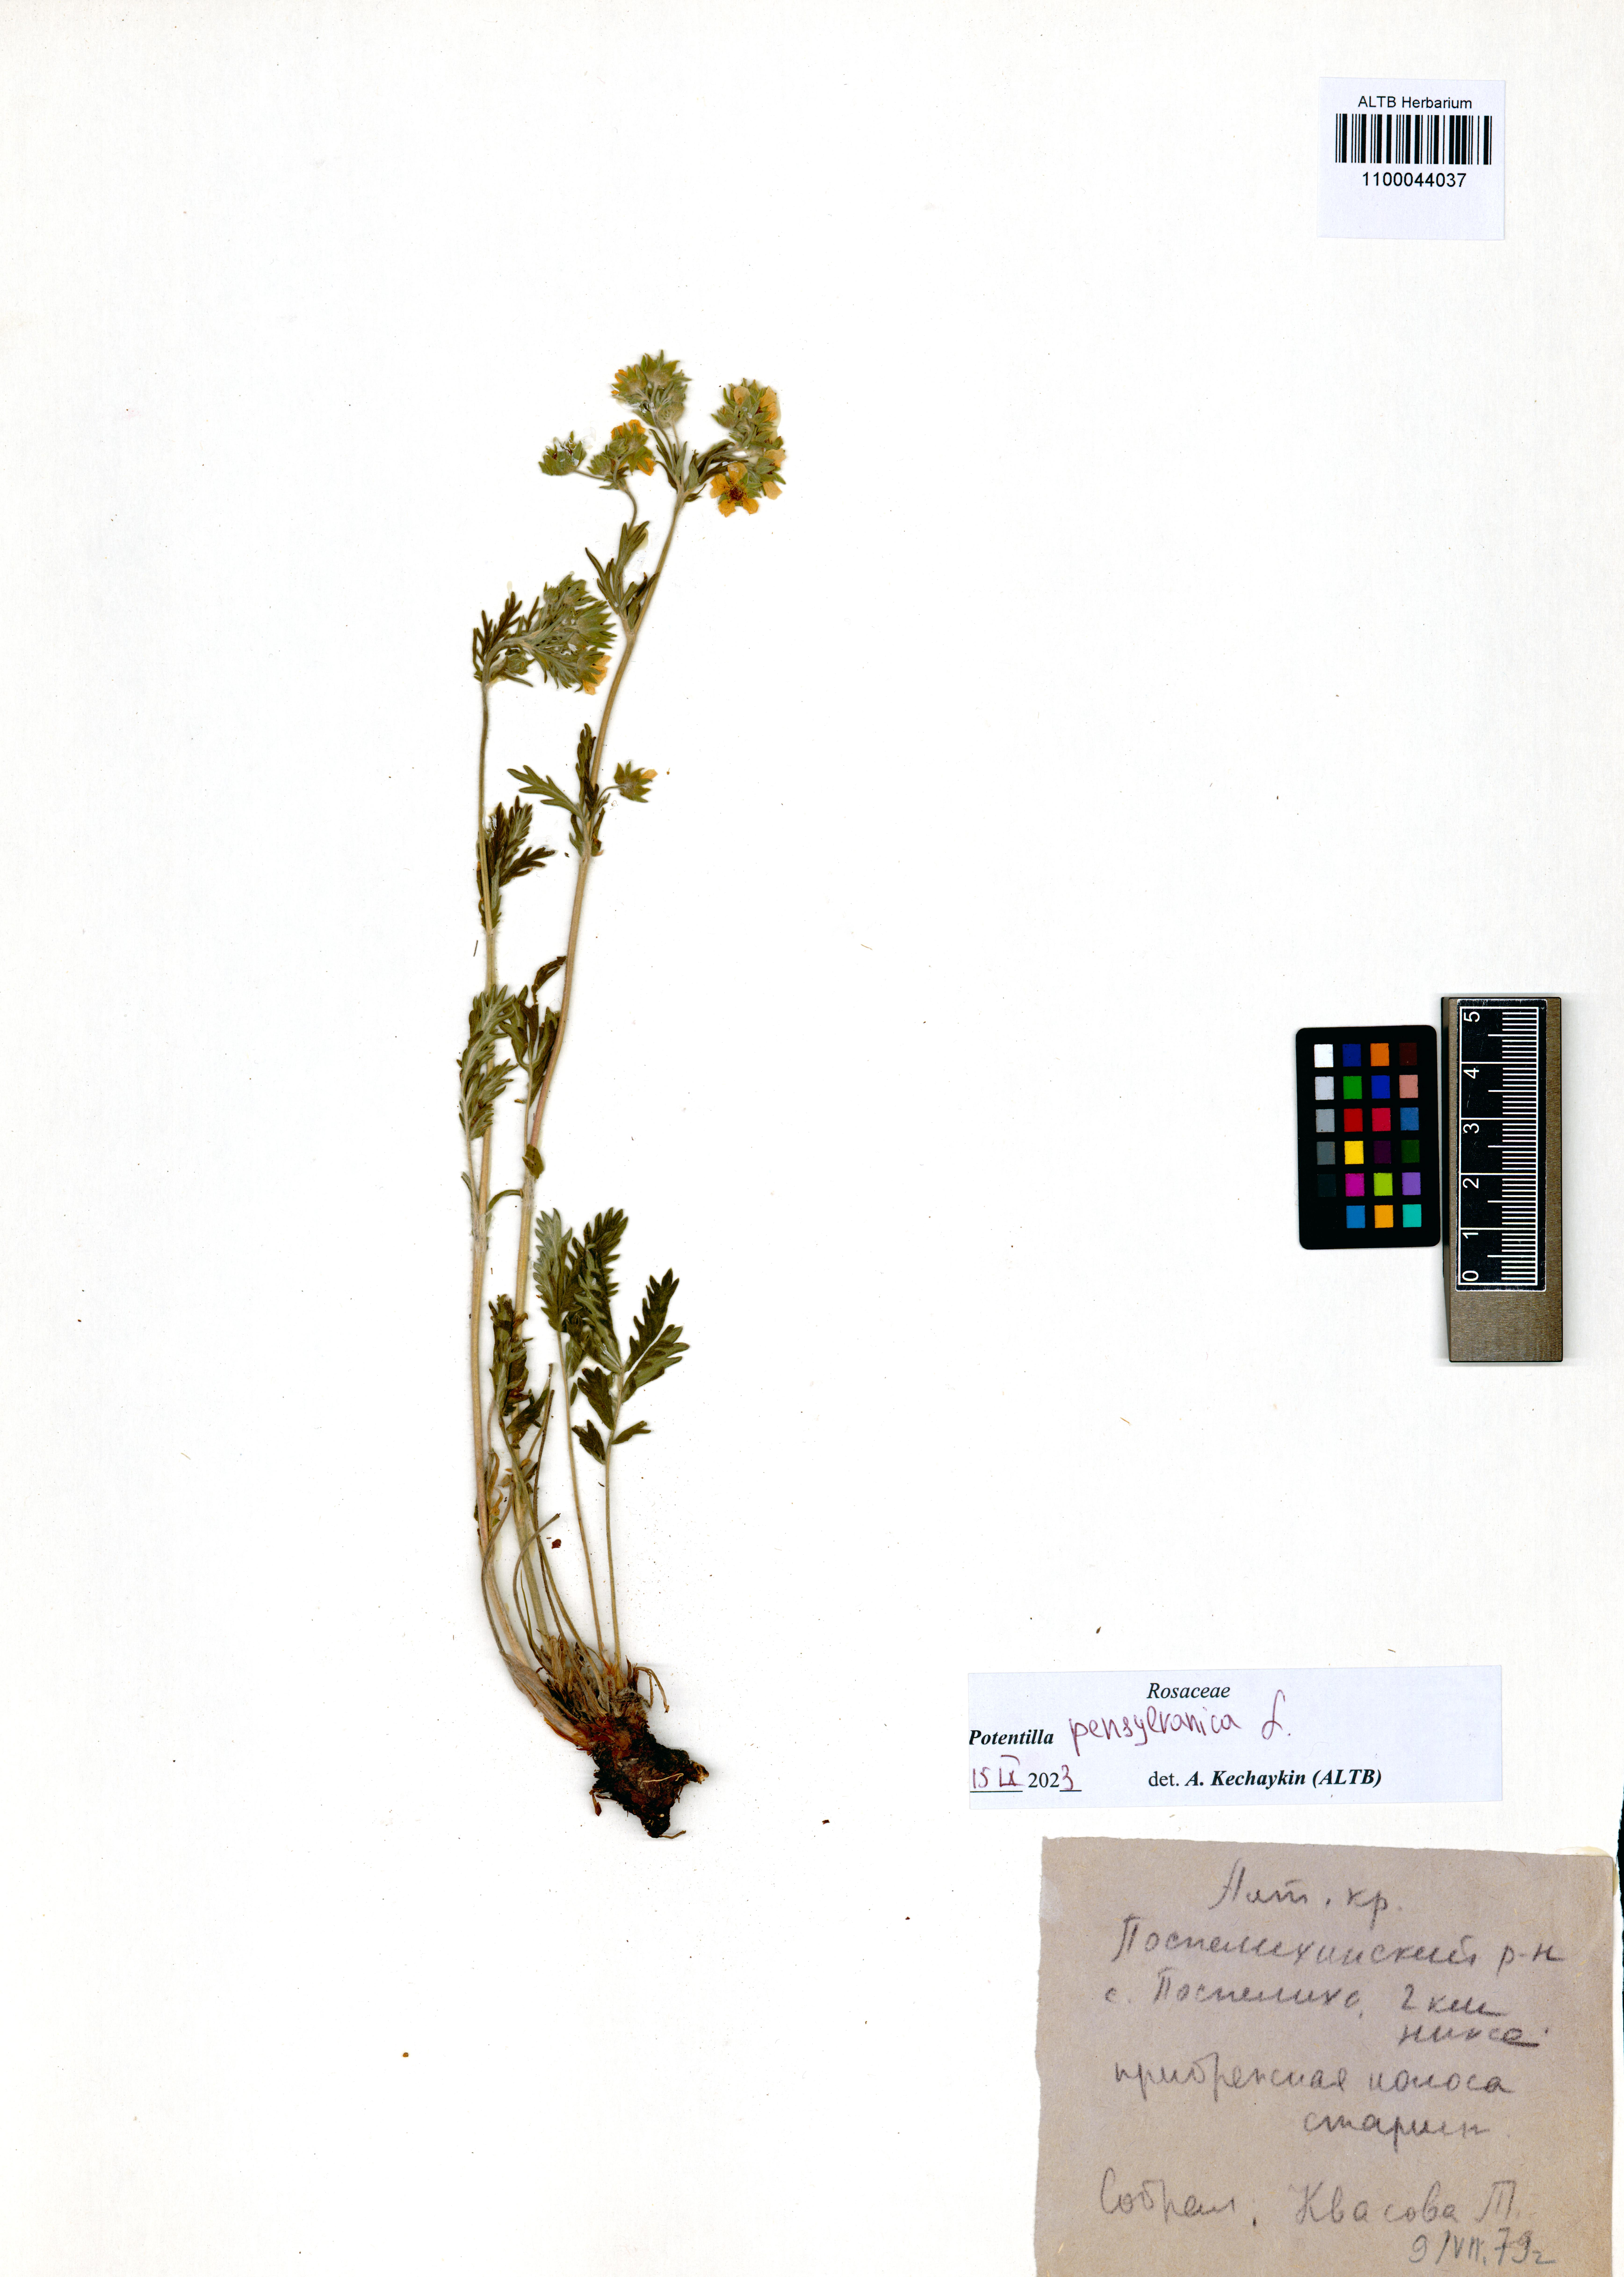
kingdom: Plantae
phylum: Tracheophyta
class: Magnoliopsida
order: Rosales
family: Rosaceae
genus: Potentilla
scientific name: Potentilla pensylvanica
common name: Pennsylvania cinquefoil
